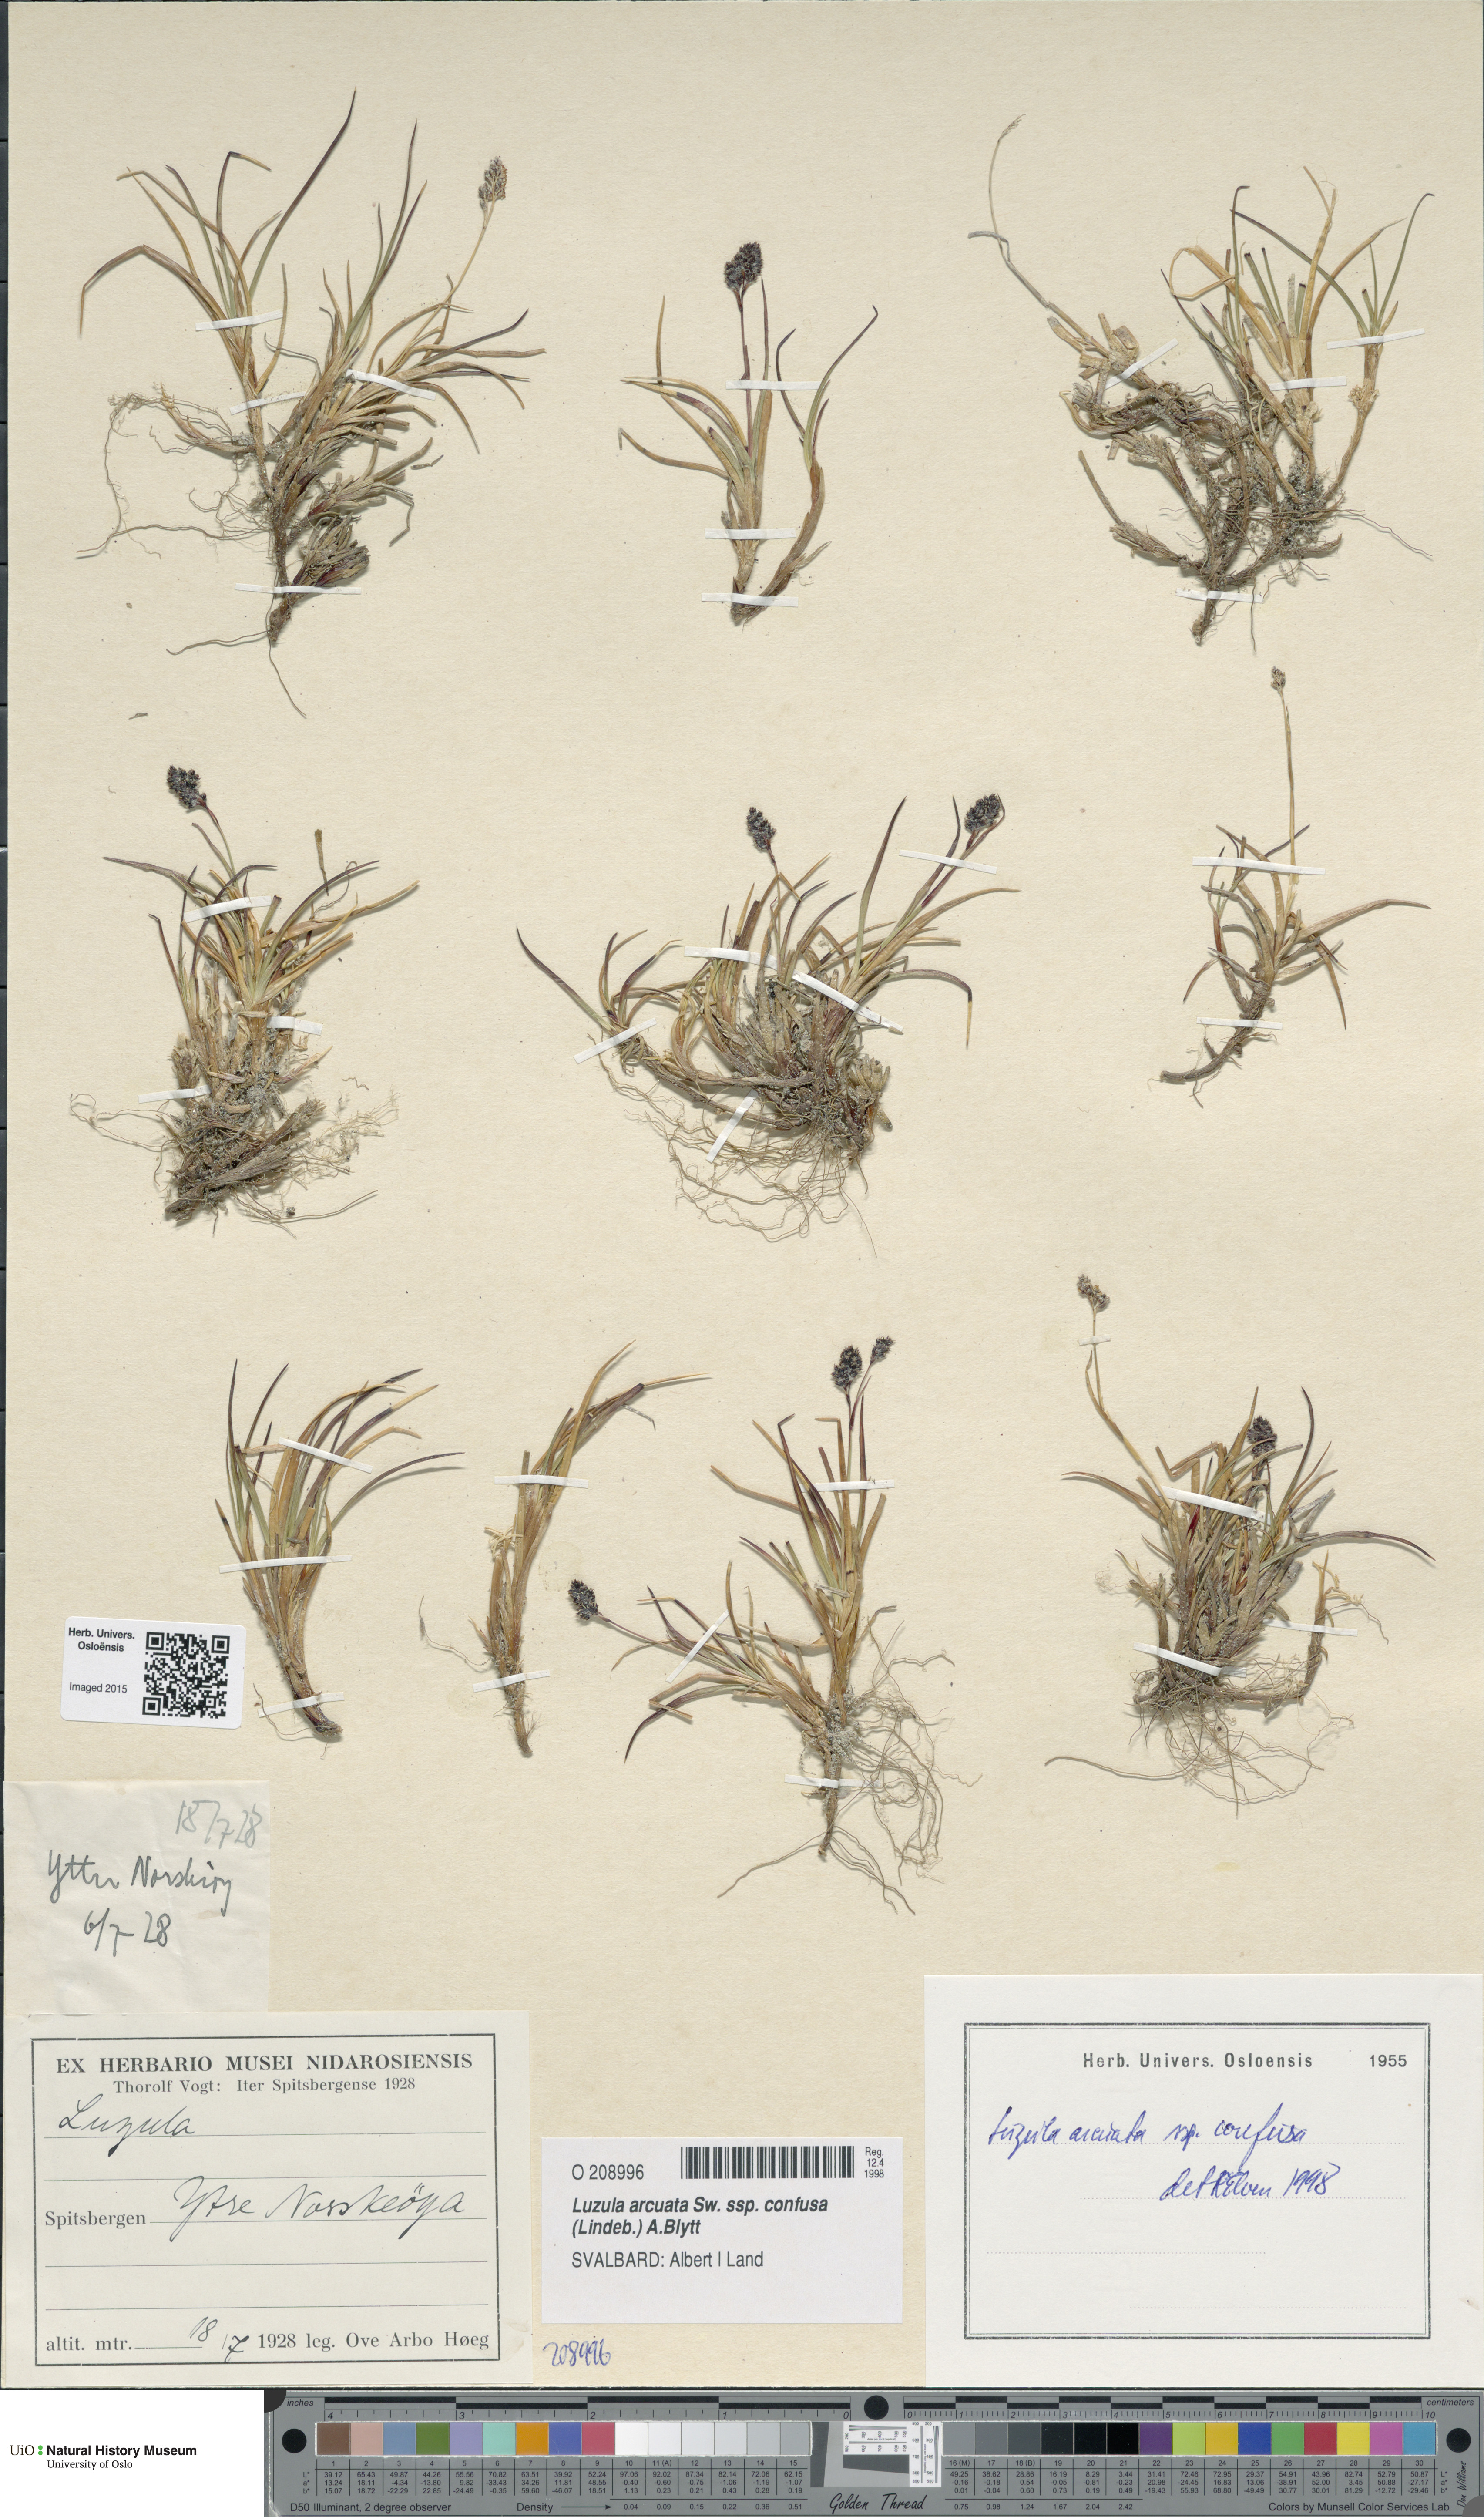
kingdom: Plantae
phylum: Tracheophyta
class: Liliopsida
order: Poales
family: Juncaceae
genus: Luzula
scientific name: Luzula confusa
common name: Northern wood rush
